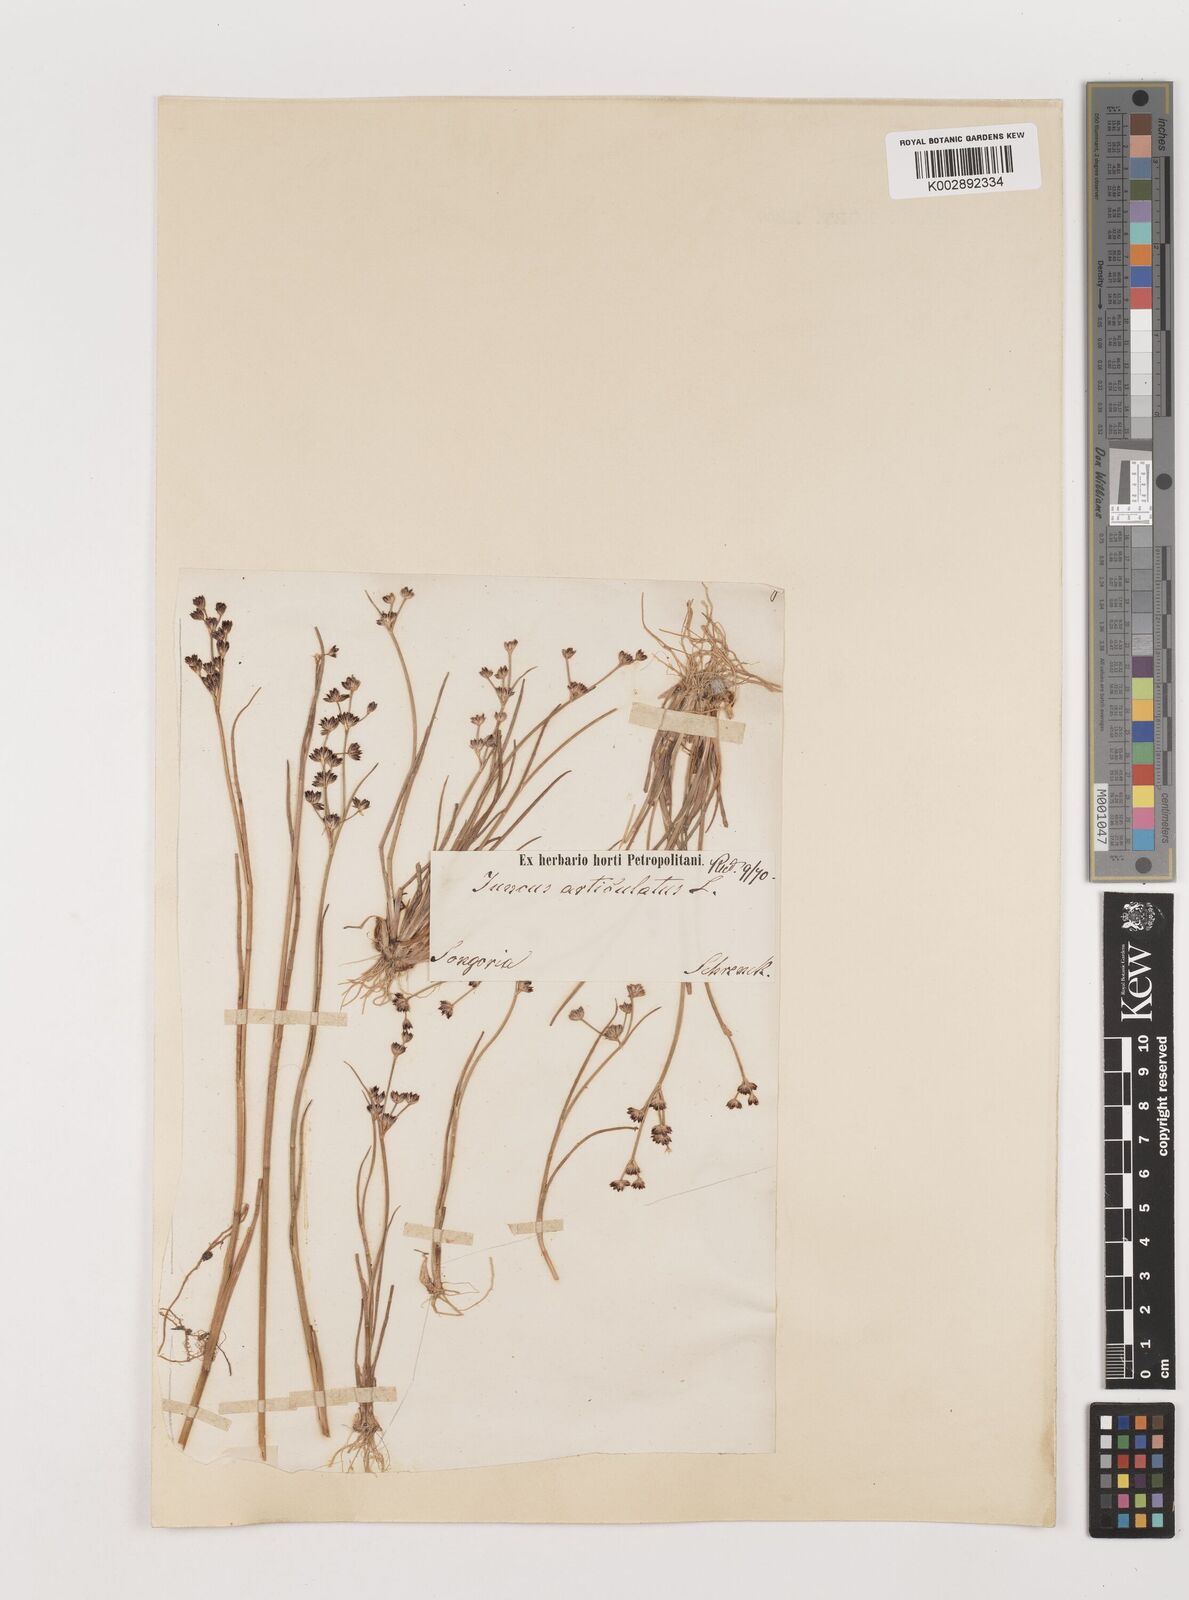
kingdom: Plantae
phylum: Tracheophyta
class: Liliopsida
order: Poales
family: Juncaceae
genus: Juncus
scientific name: Juncus articulatus
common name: Jointed rush
